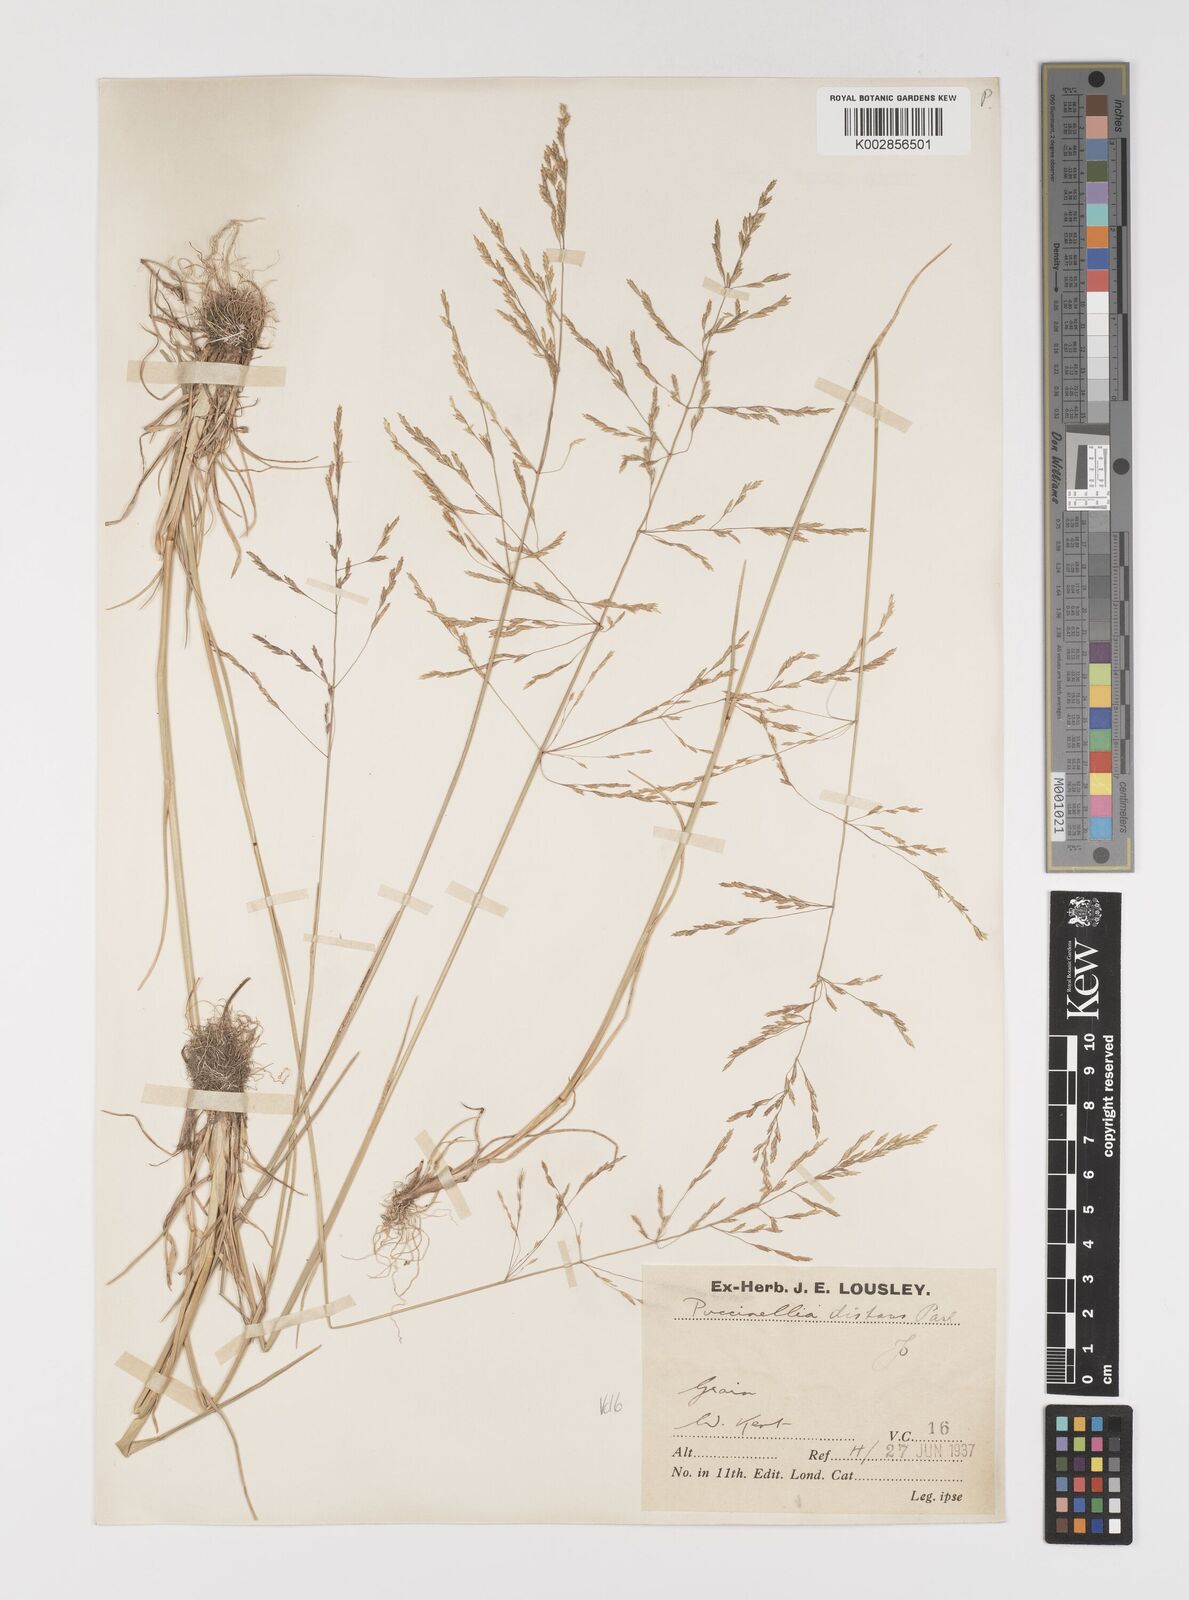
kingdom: Plantae
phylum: Tracheophyta
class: Liliopsida
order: Poales
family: Poaceae
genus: Puccinellia
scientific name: Puccinellia distans
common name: Weeping alkaligrass
